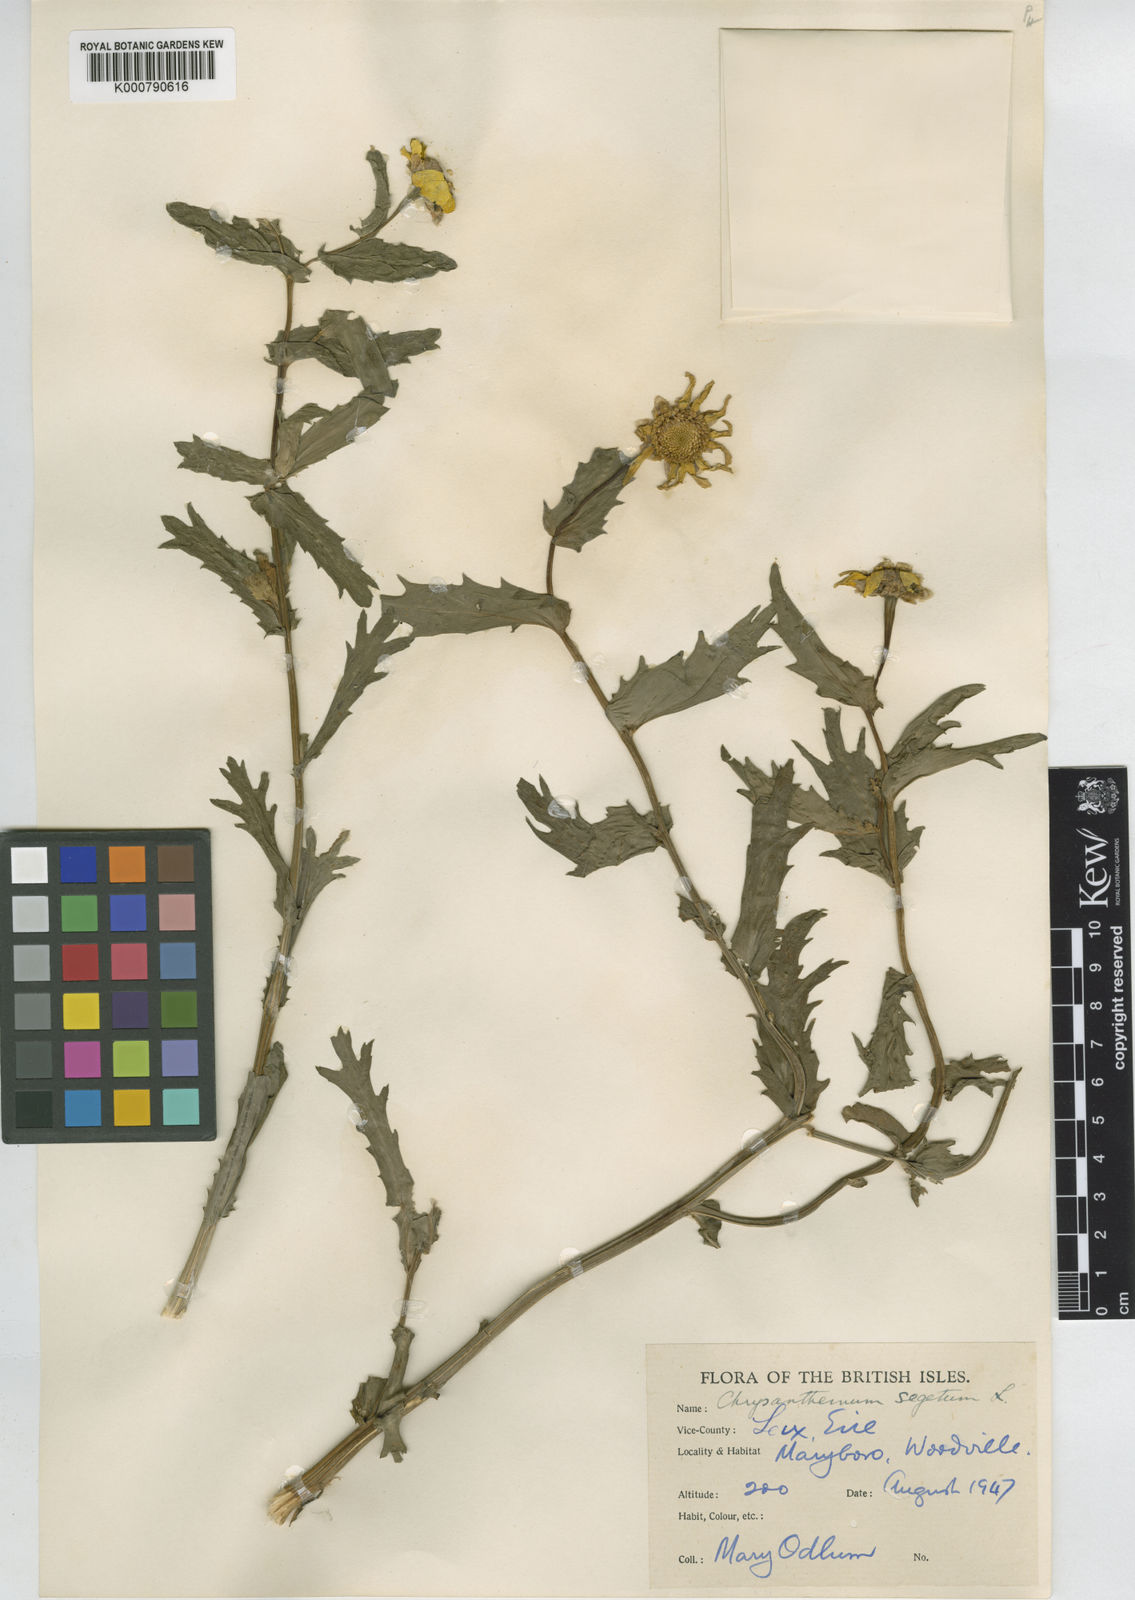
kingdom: Plantae
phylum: Tracheophyta
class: Magnoliopsida
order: Asterales
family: Asteraceae
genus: Glebionis
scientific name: Glebionis
